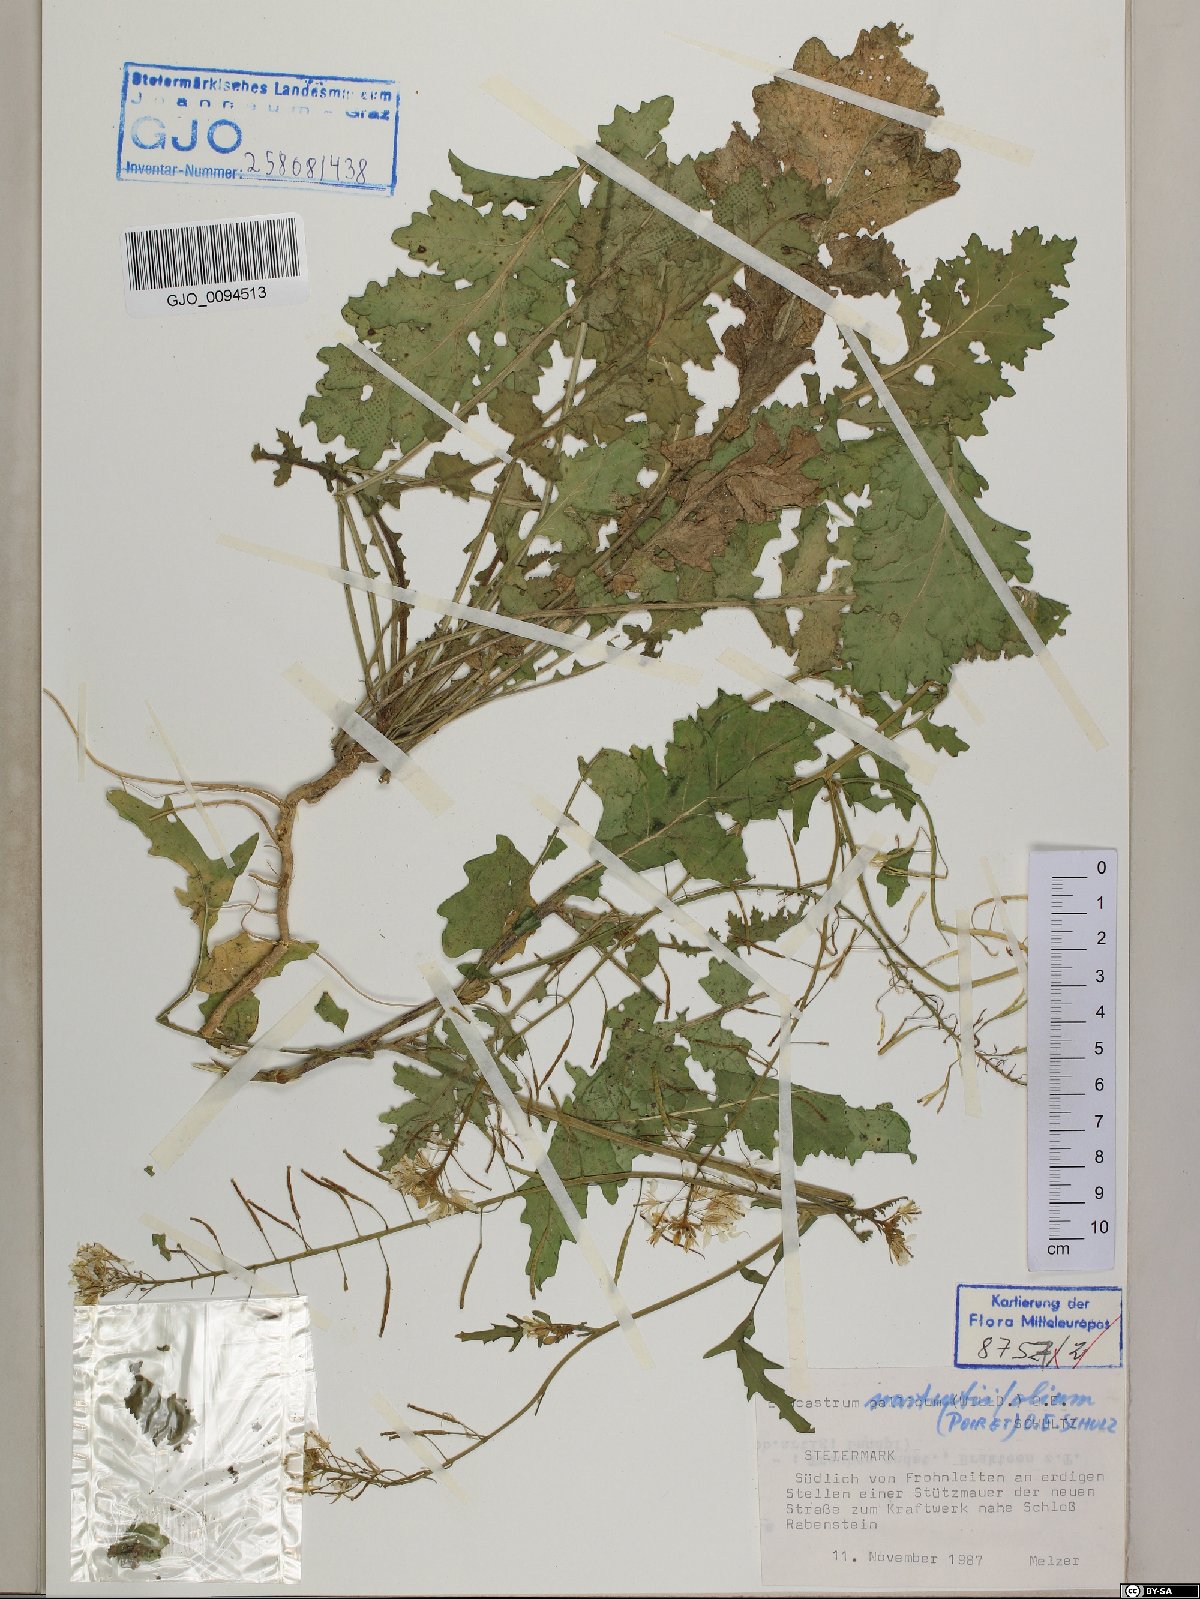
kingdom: Plantae
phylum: Tracheophyta
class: Magnoliopsida
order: Brassicales
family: Brassicaceae
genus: Erucastrum
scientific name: Erucastrum nasturtiifolium
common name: Watercress-leaf rocket
